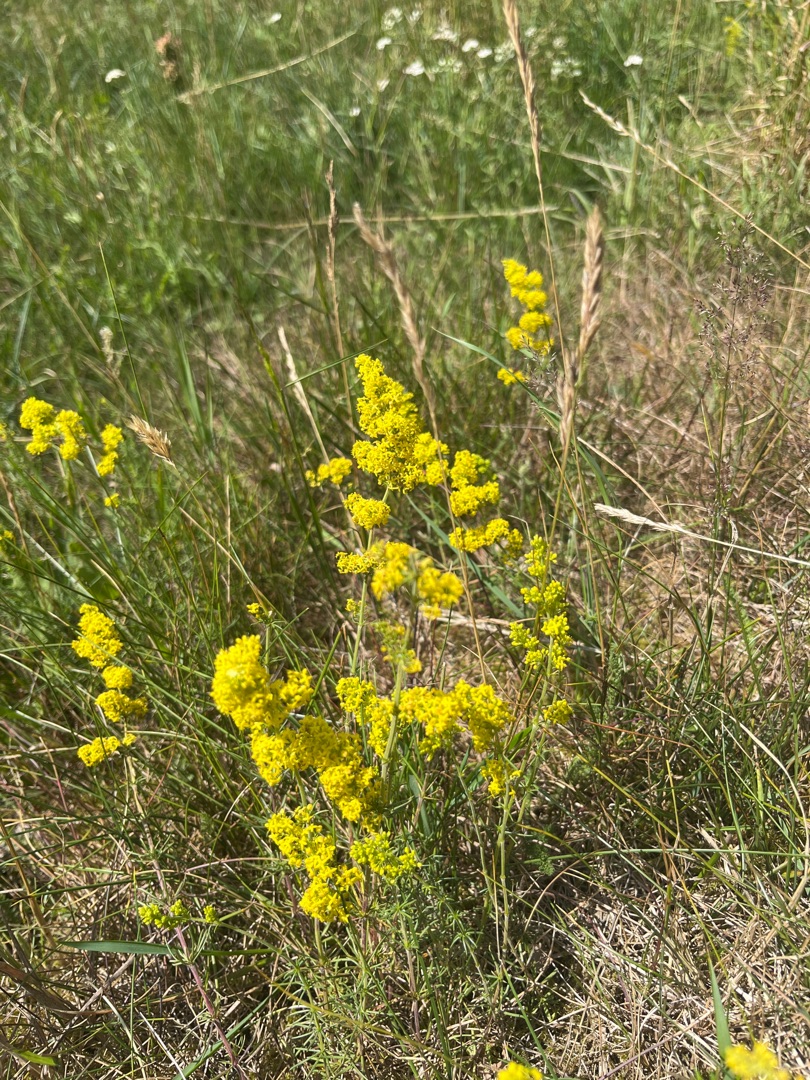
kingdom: Plantae
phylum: Tracheophyta
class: Magnoliopsida
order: Gentianales
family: Rubiaceae
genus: Galium
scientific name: Galium verum
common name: Gul snerre
